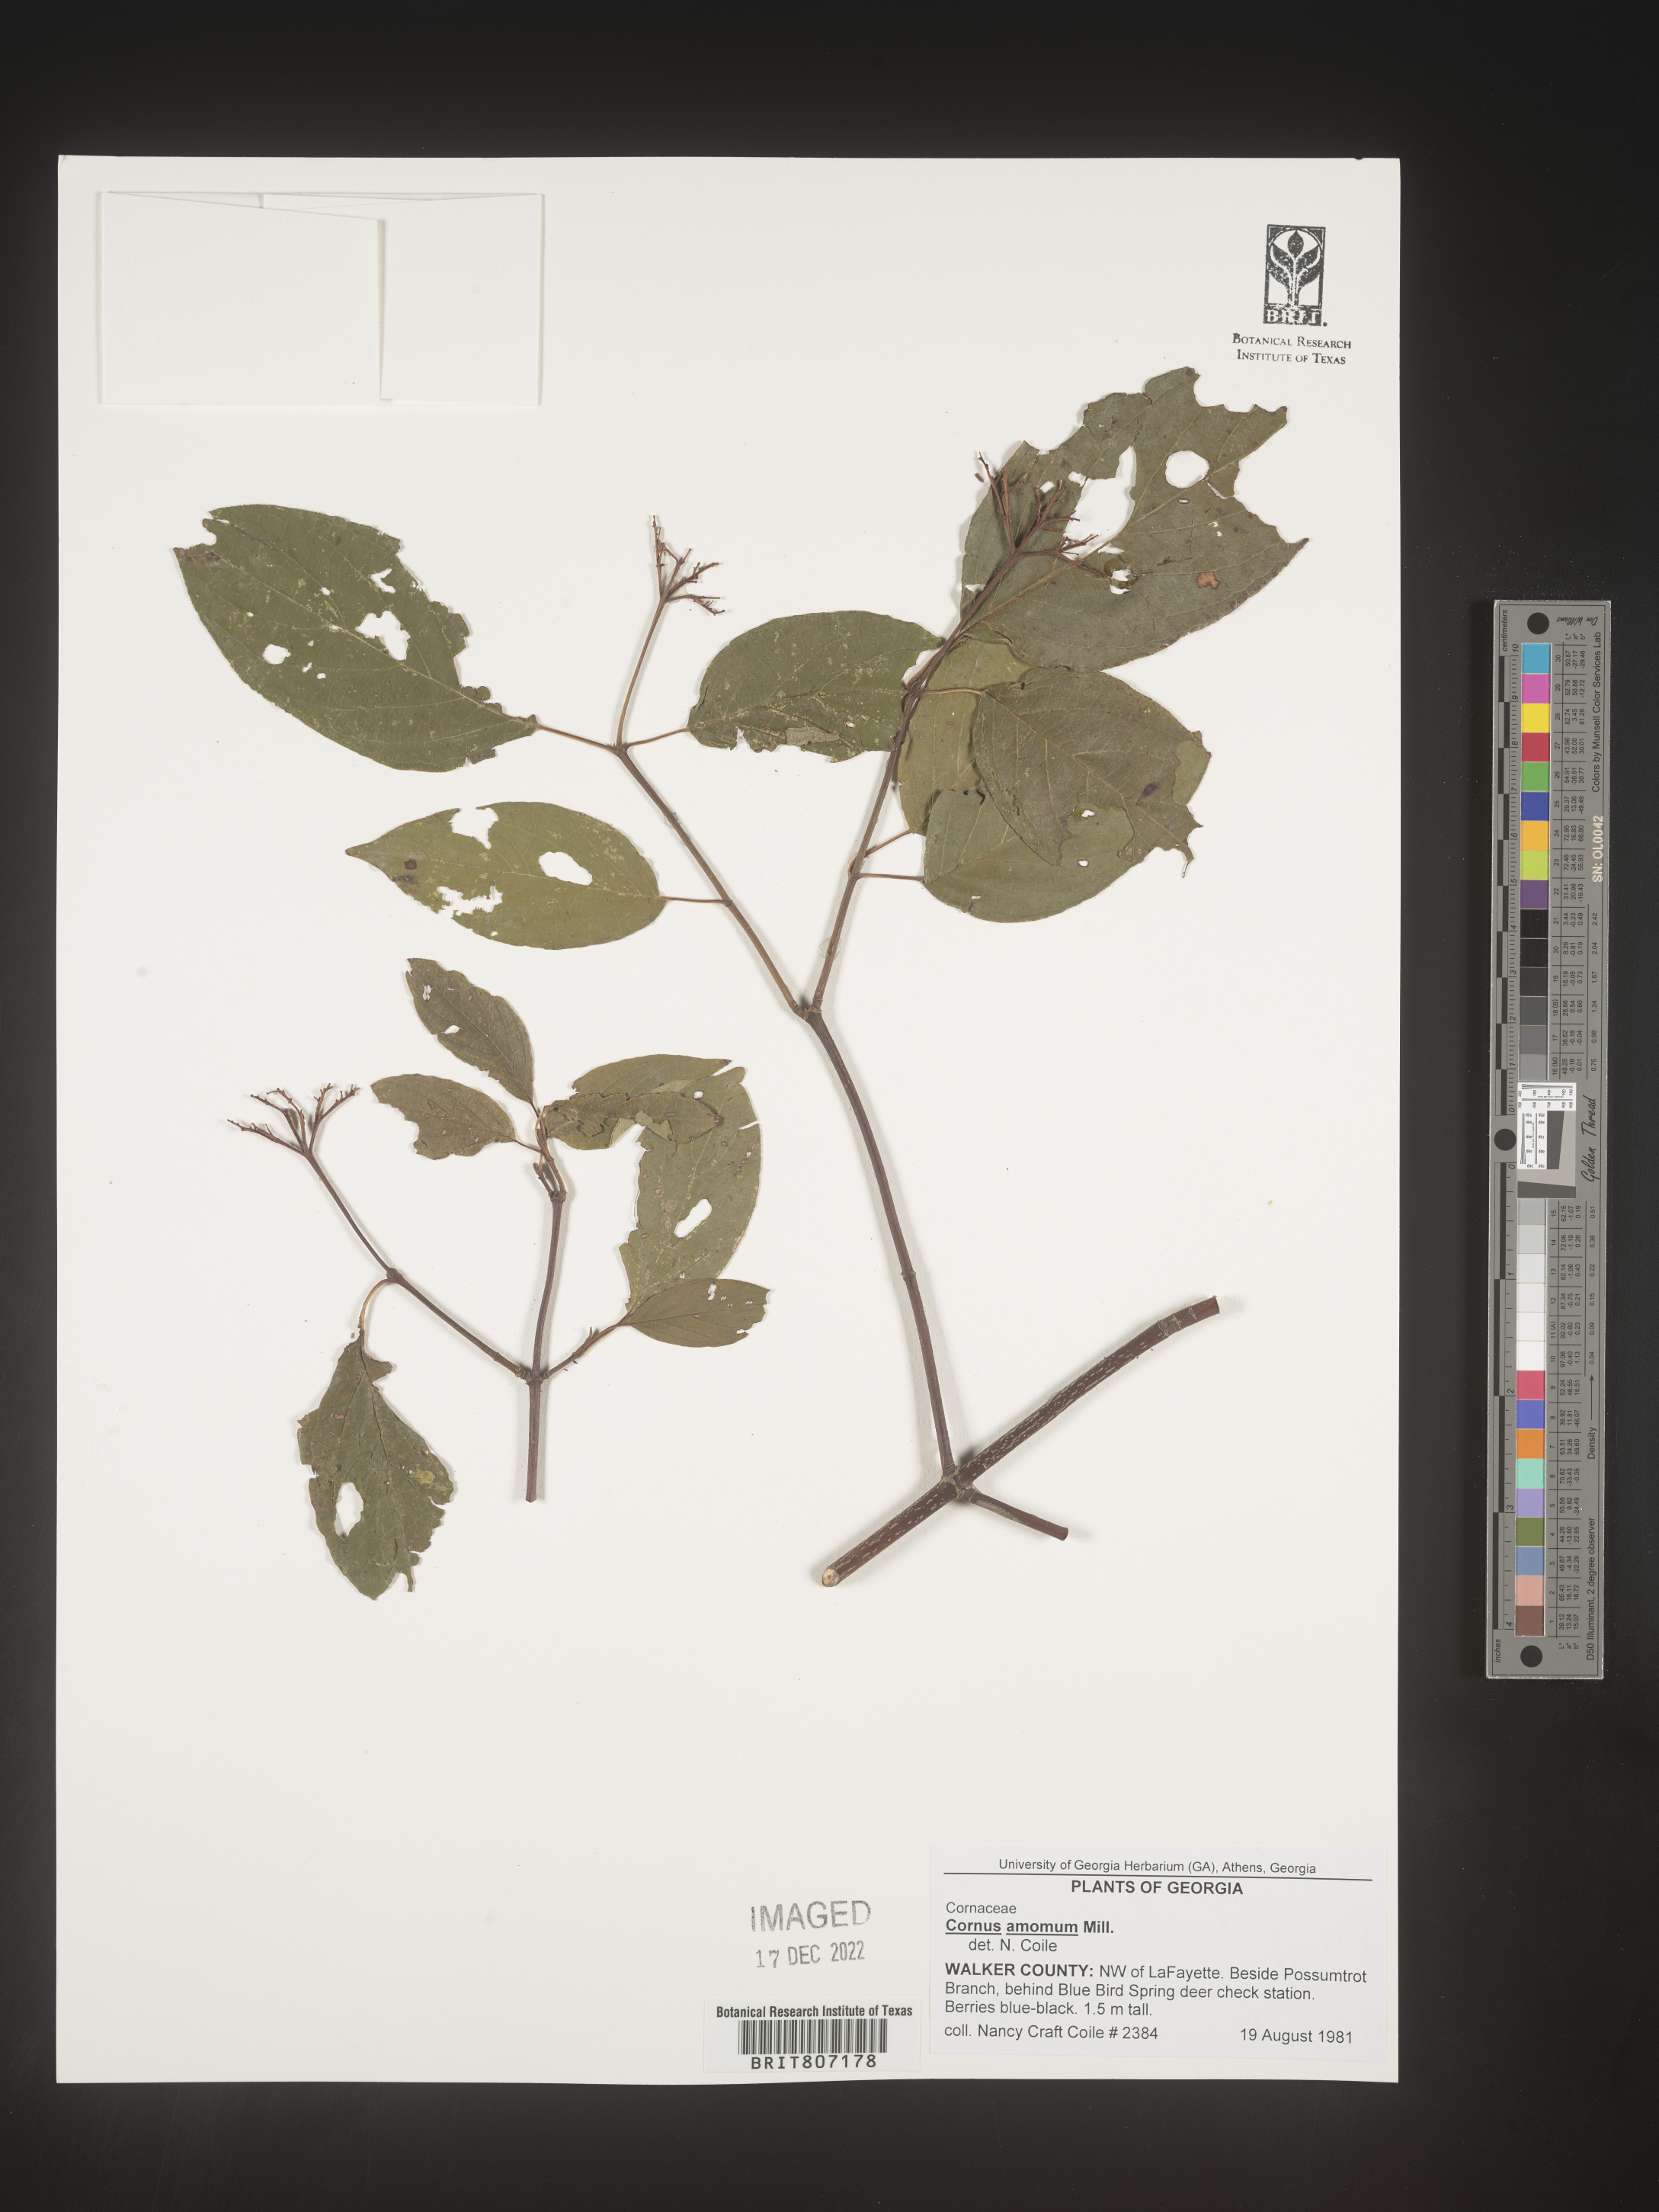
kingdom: Plantae
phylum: Tracheophyta
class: Magnoliopsida
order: Cornales
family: Cornaceae
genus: Cornus
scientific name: Cornus amomum
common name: Silky dogwood
